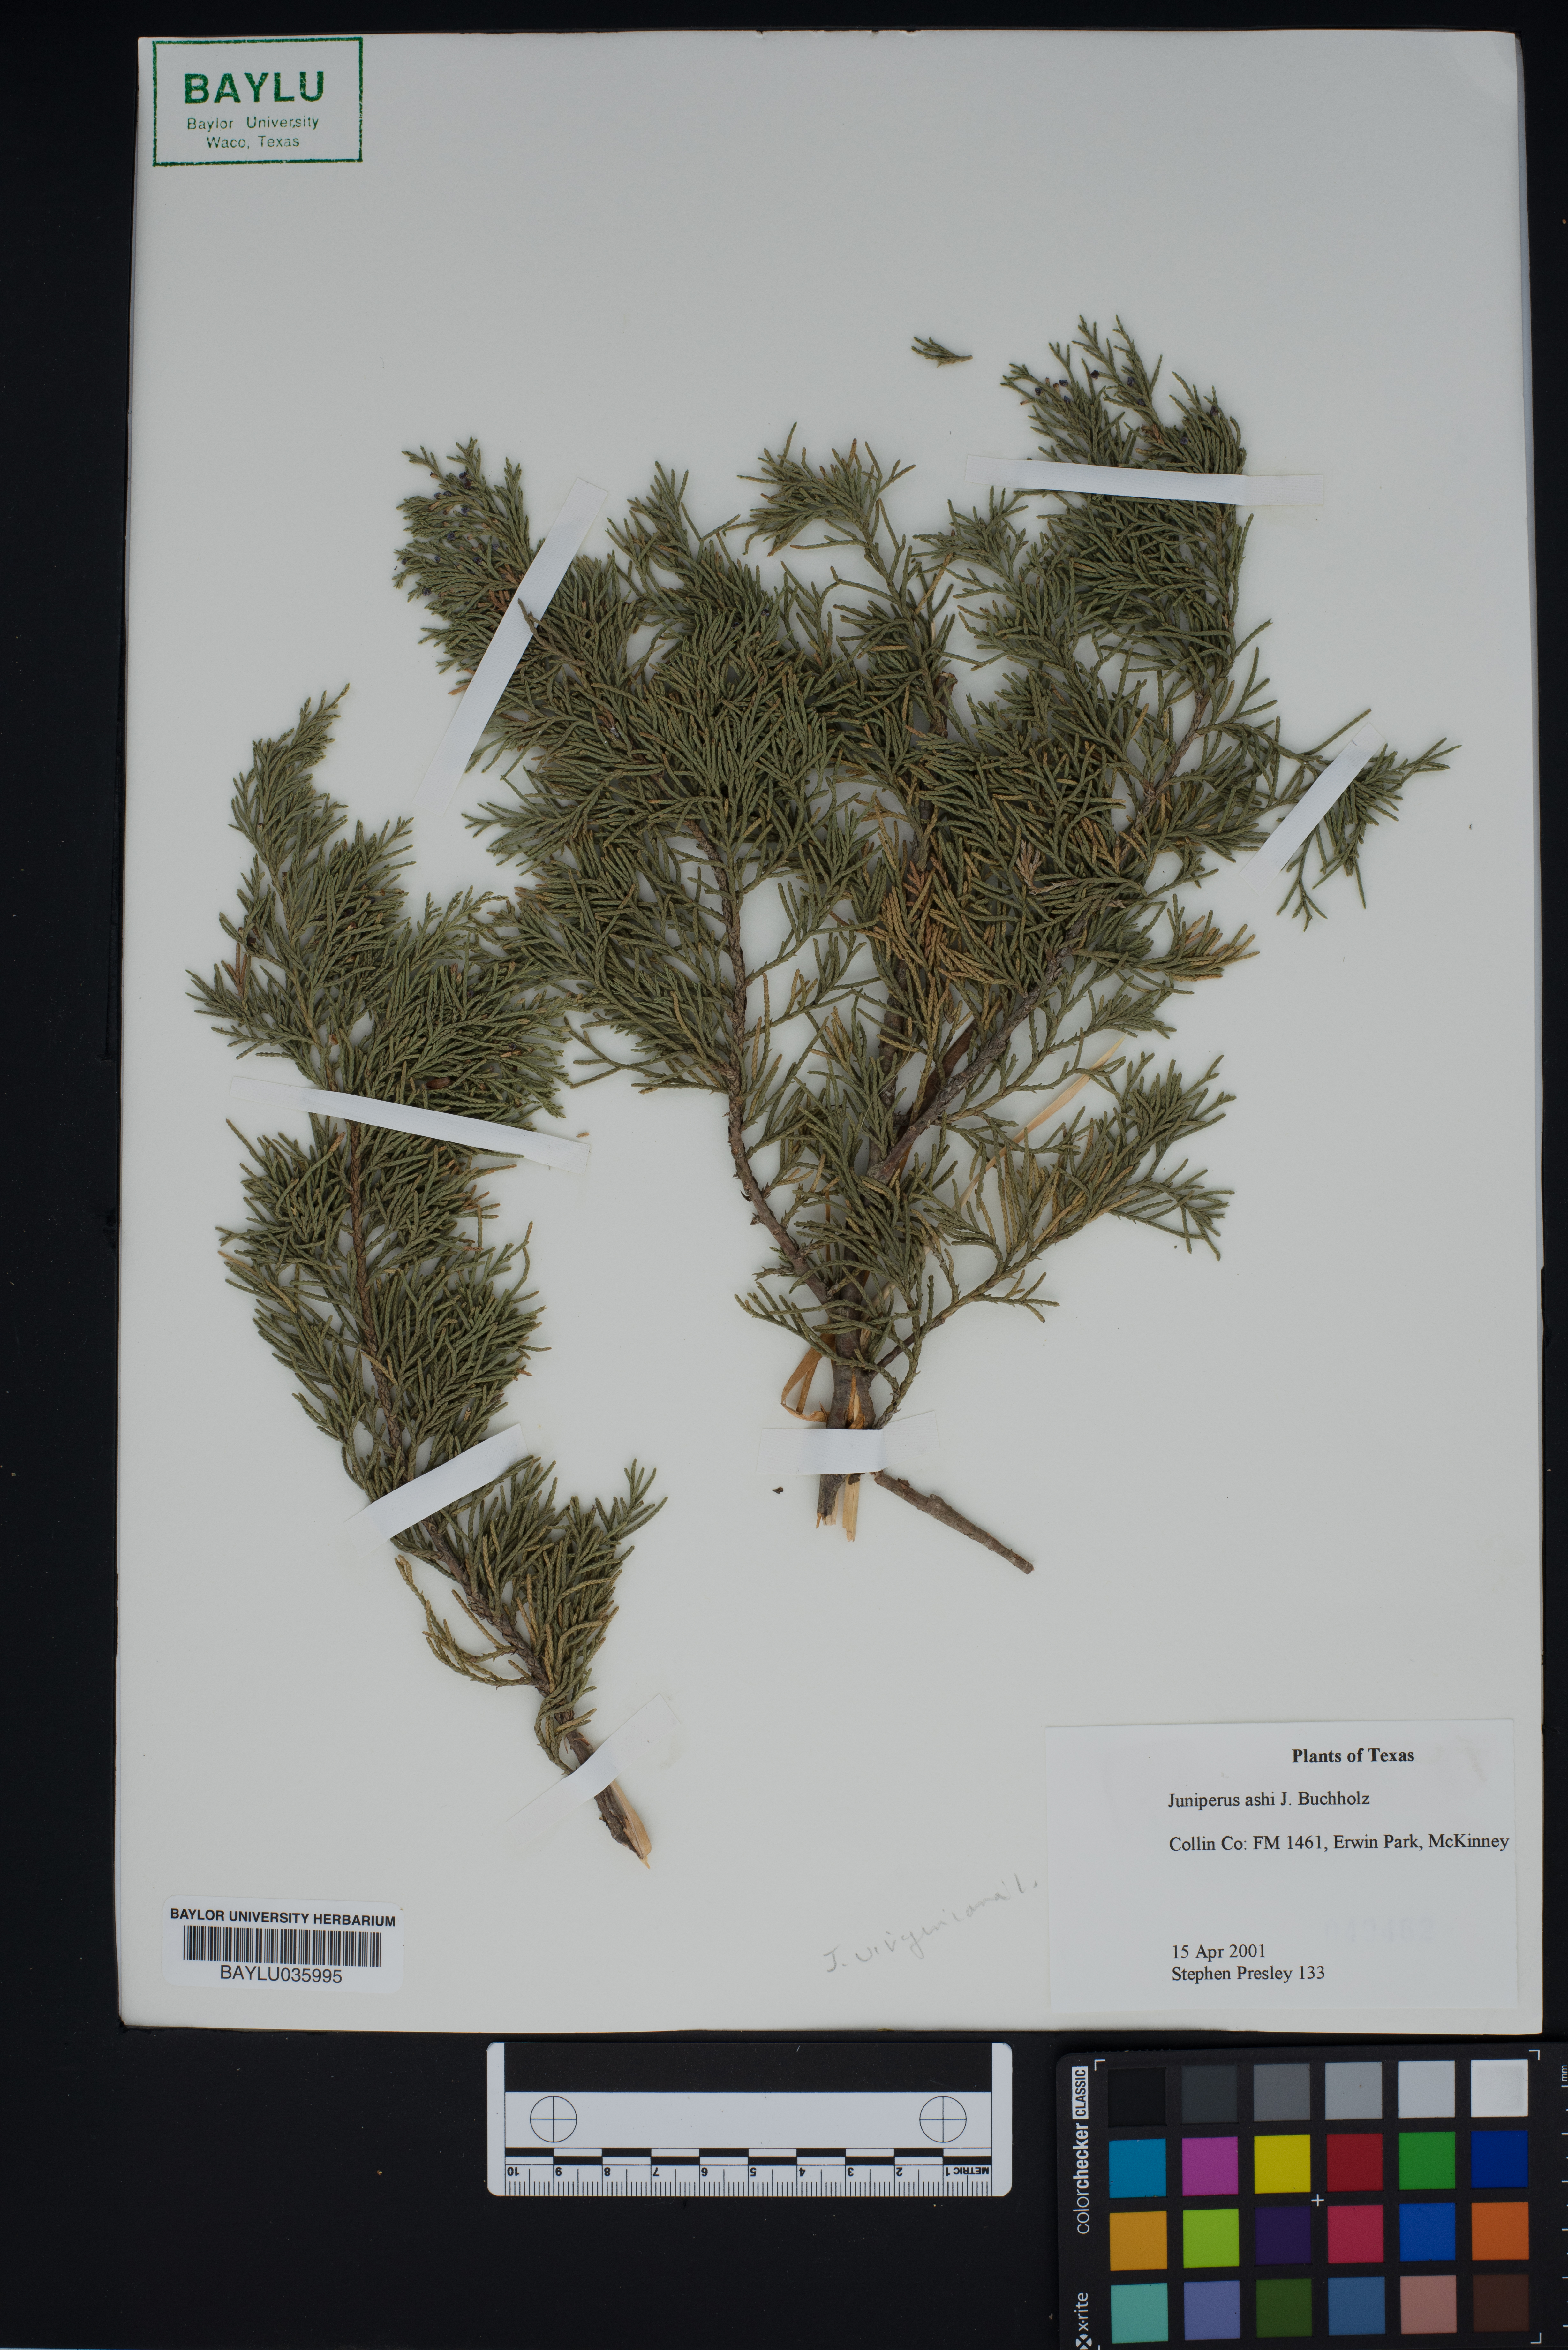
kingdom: Plantae
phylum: Tracheophyta
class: Pinopsida
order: Pinales
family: Cupressaceae
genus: Juniperus
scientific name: Juniperus virginiana
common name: Red juniper
